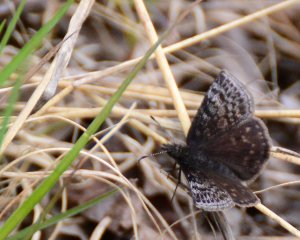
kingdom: Animalia
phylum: Arthropoda
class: Insecta
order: Lepidoptera
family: Hesperiidae
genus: Erynnis
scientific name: Erynnis icelus
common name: Dreamy Duskywing
